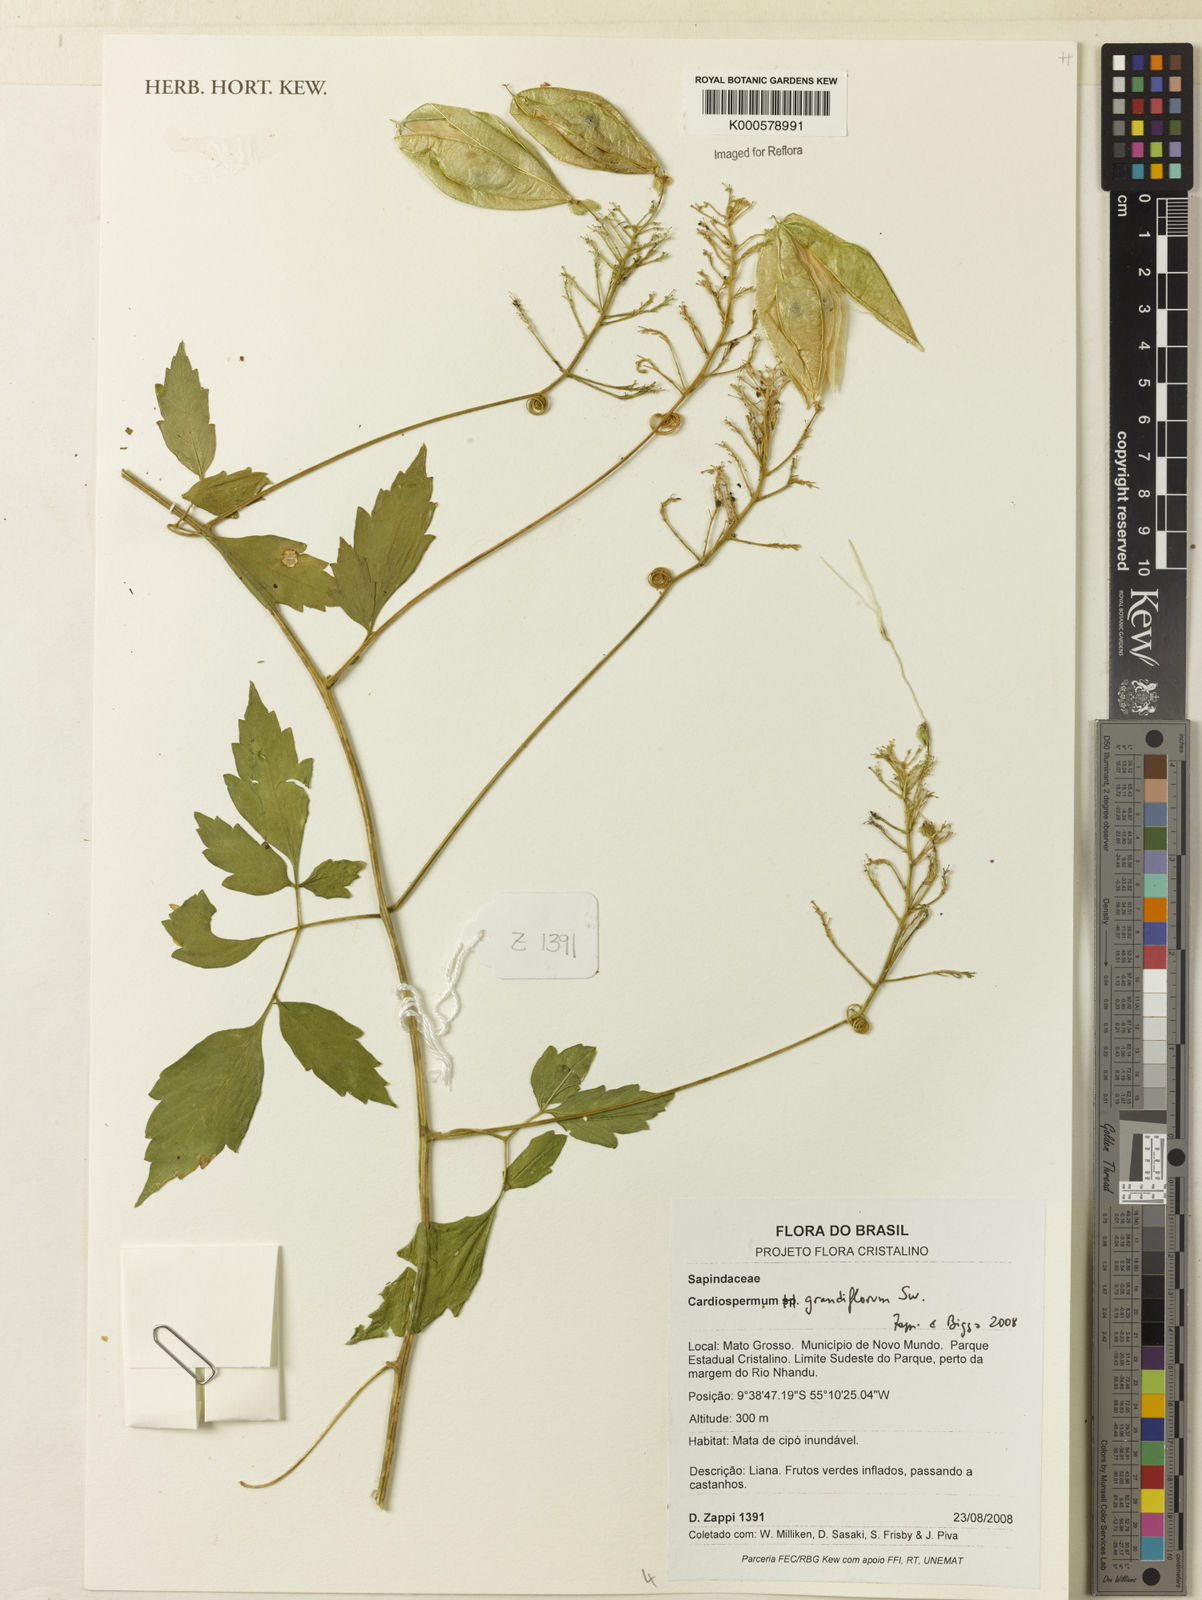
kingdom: Plantae
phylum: Tracheophyta
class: Magnoliopsida
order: Sapindales
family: Sapindaceae
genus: Cardiospermum
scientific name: Cardiospermum grandiflorum
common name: Balloon vine
